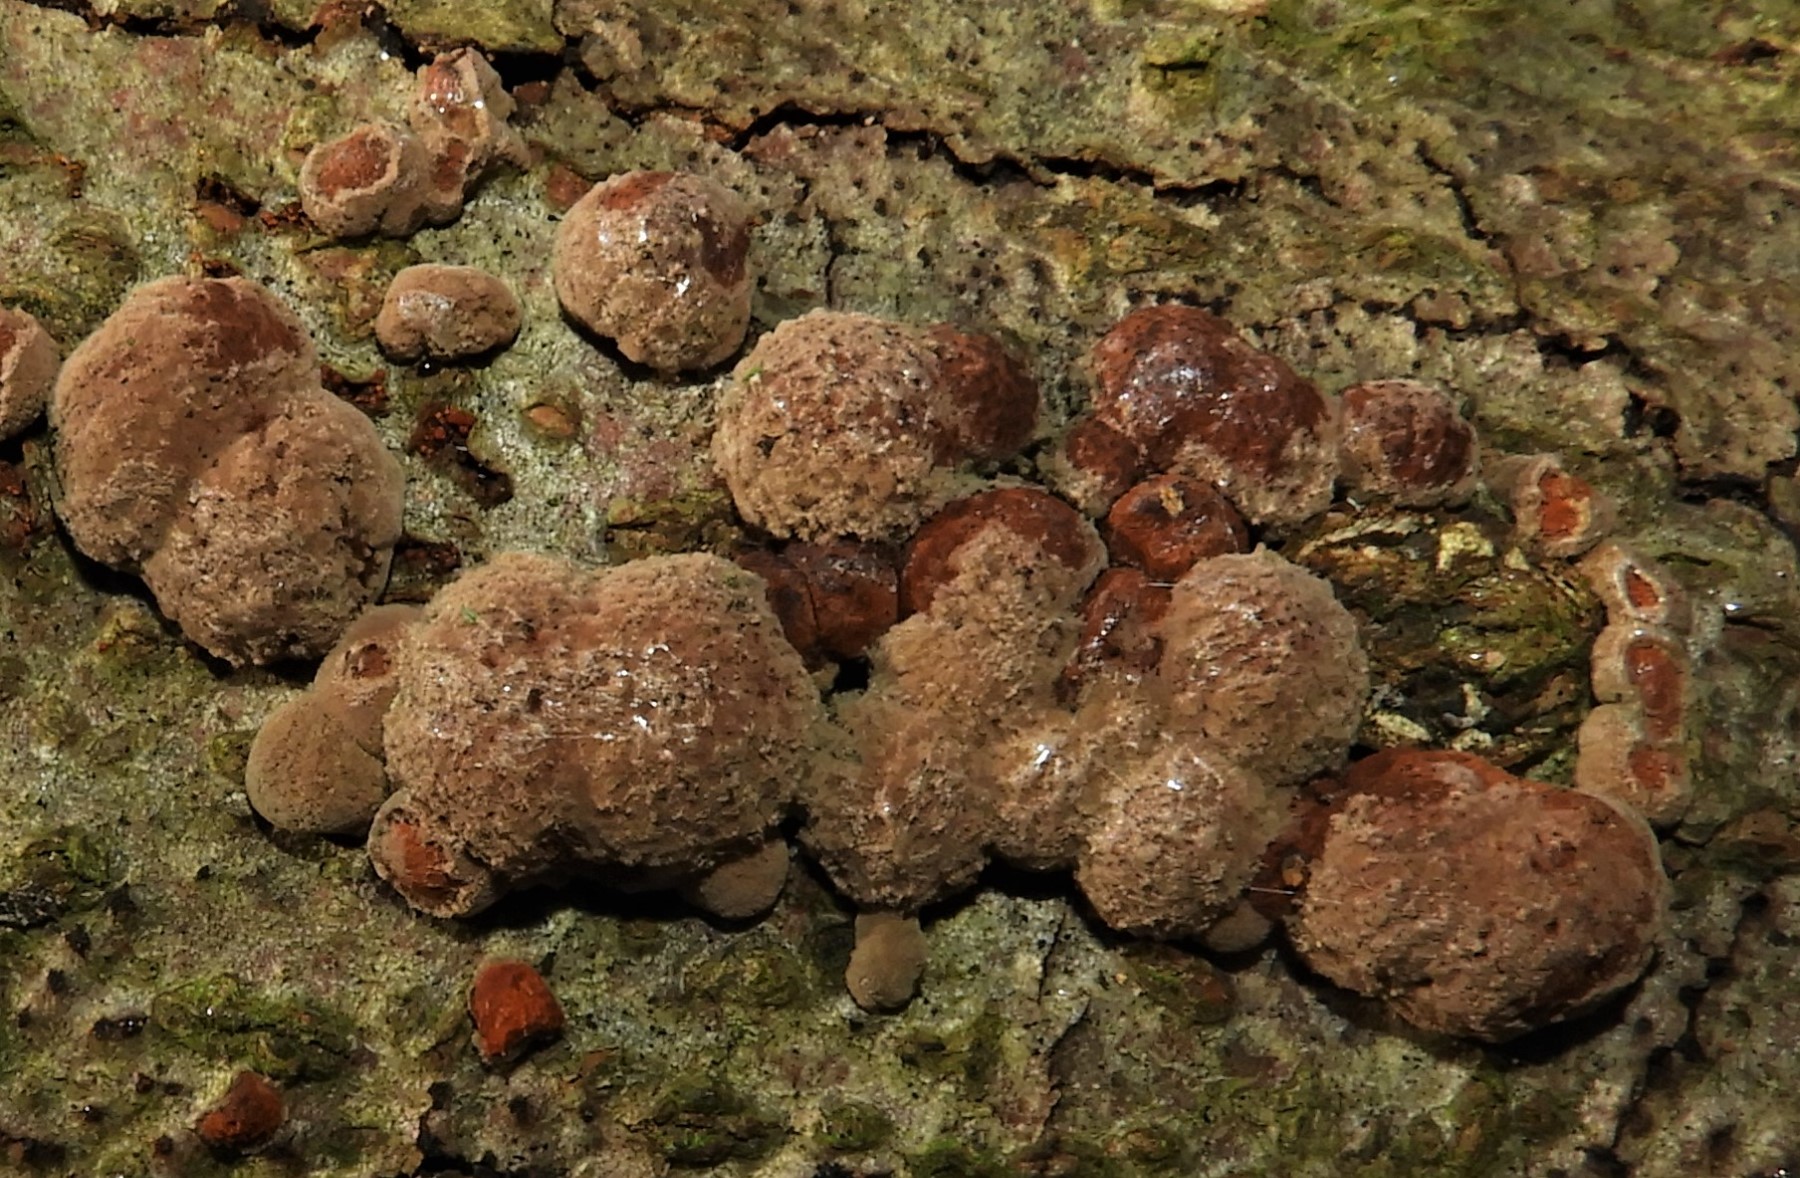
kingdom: Fungi
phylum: Ascomycota
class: Sordariomycetes
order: Xylariales
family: Hypoxylaceae
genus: Hypoxylon
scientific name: Hypoxylon fragiforme
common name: kuljordbær
